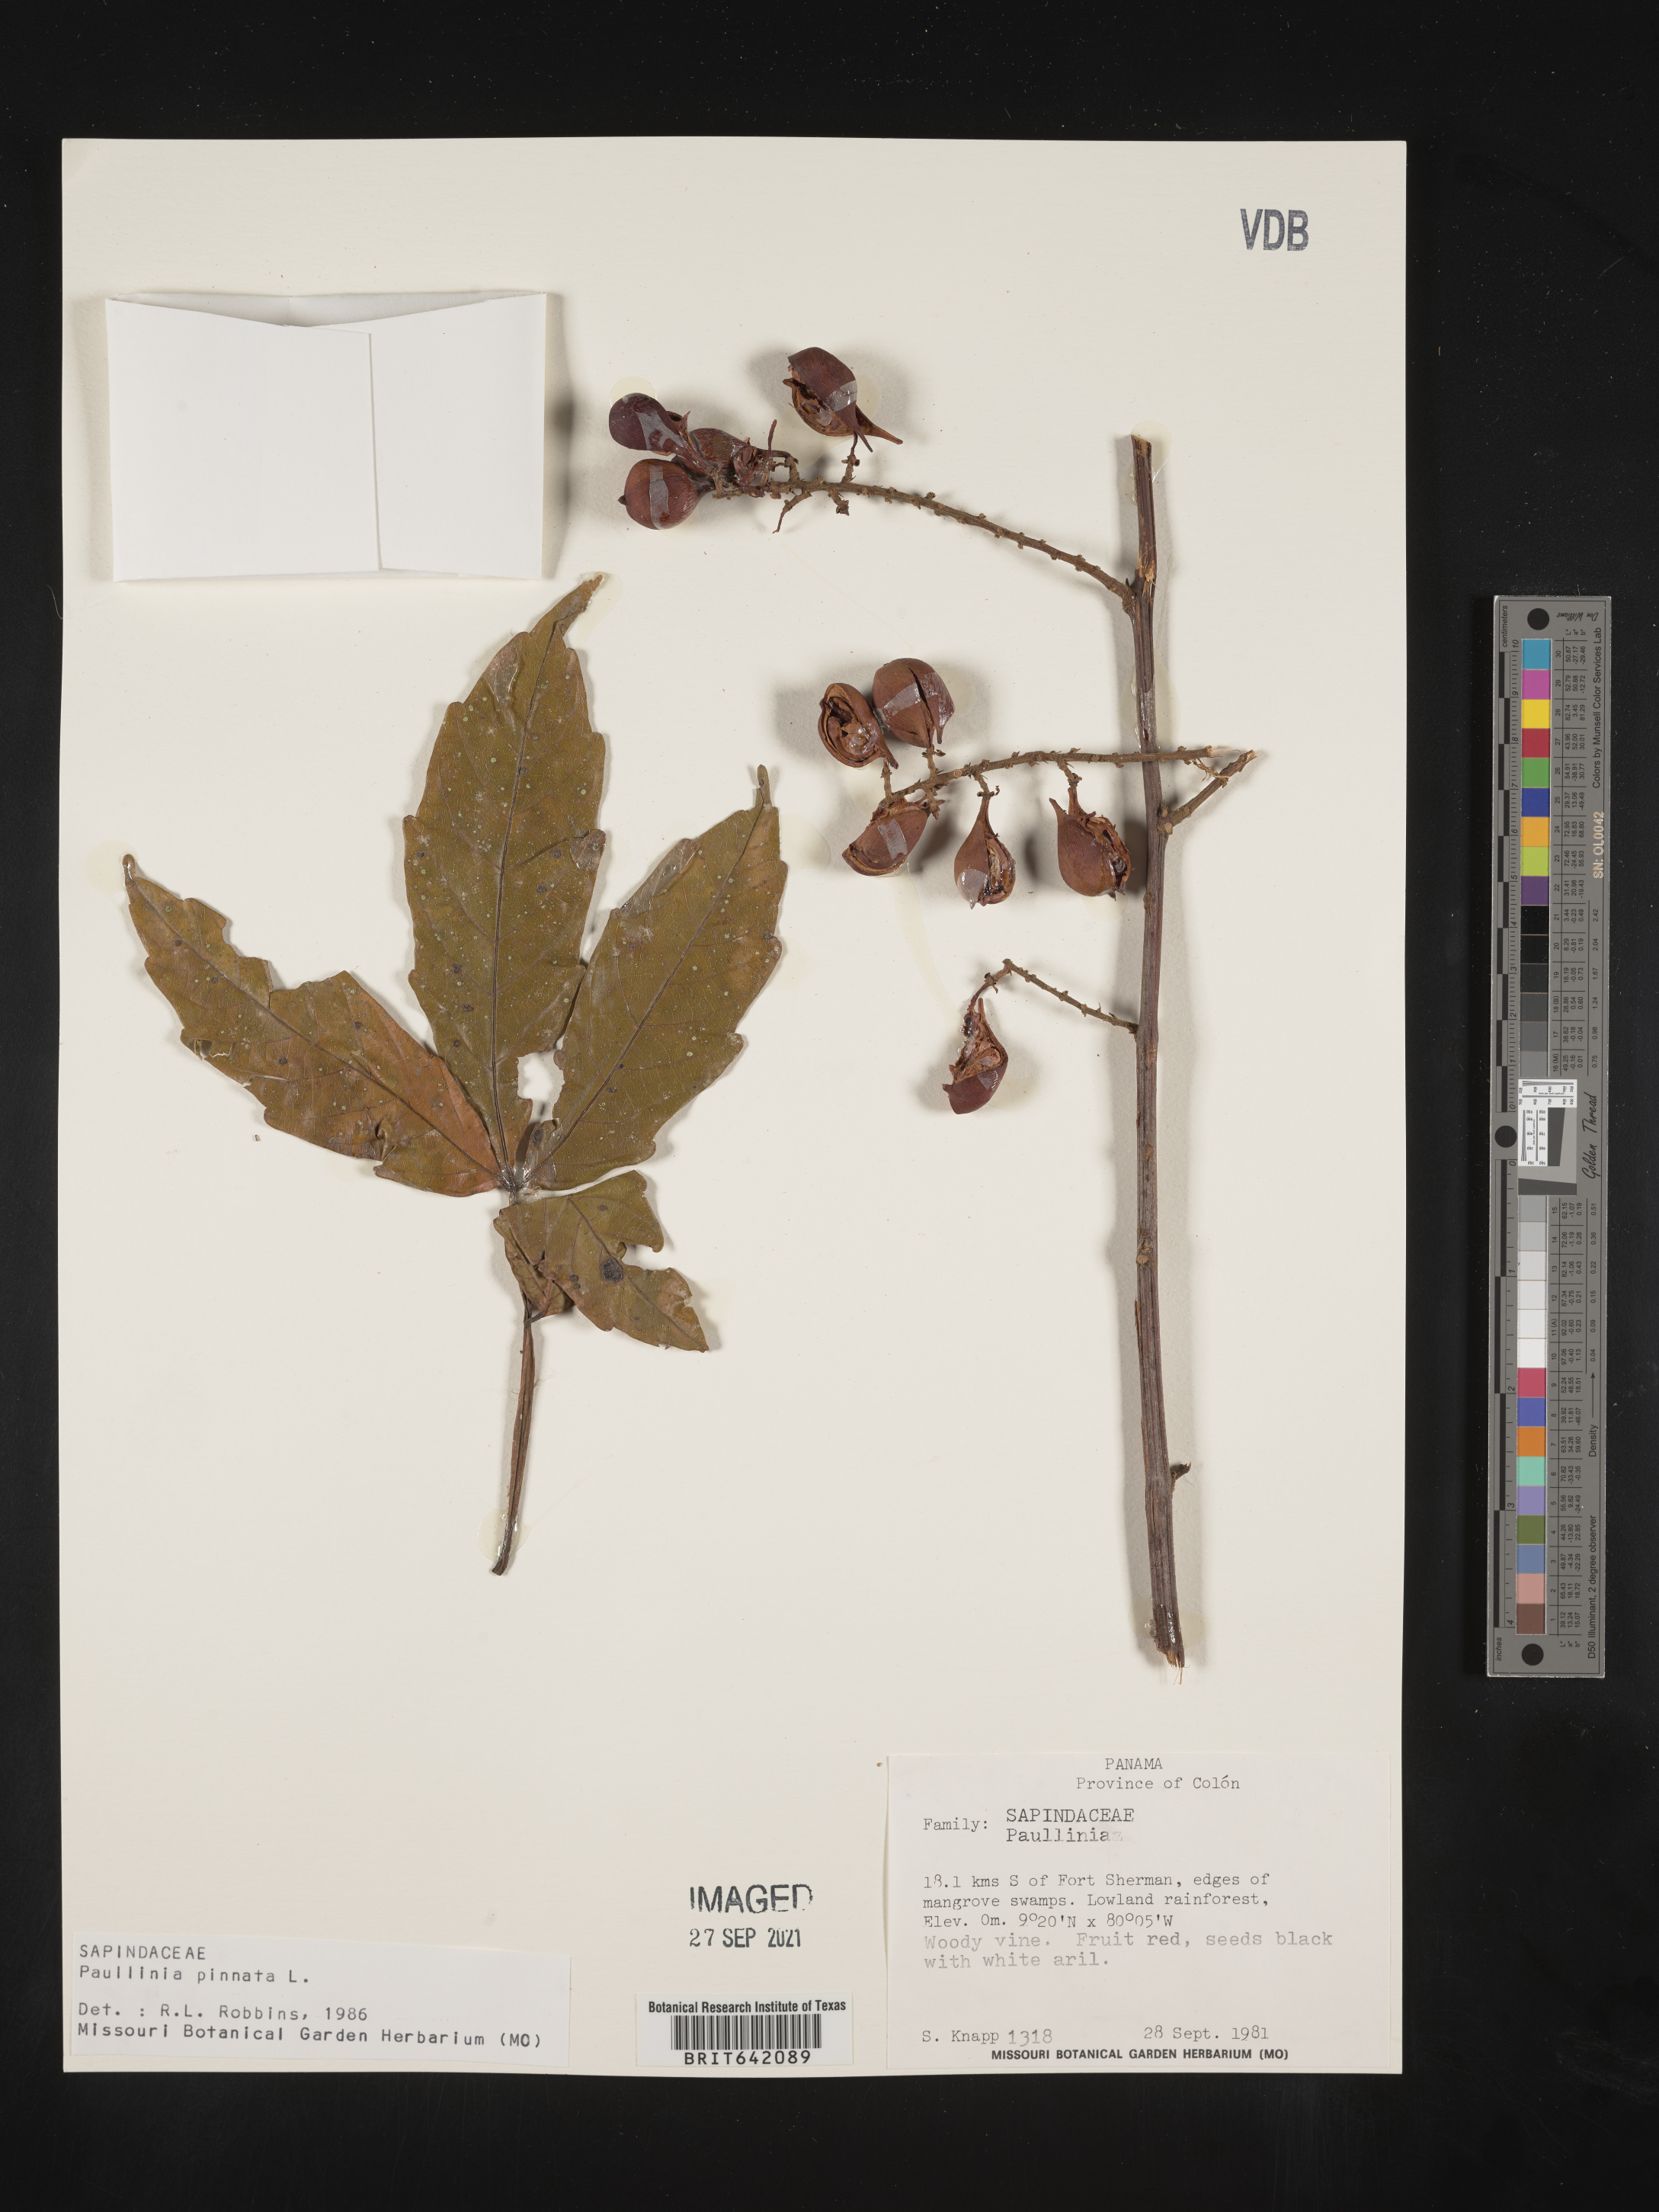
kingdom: Plantae
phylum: Tracheophyta
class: Magnoliopsida
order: Sapindales
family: Sapindaceae
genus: Paullinia
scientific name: Paullinia
